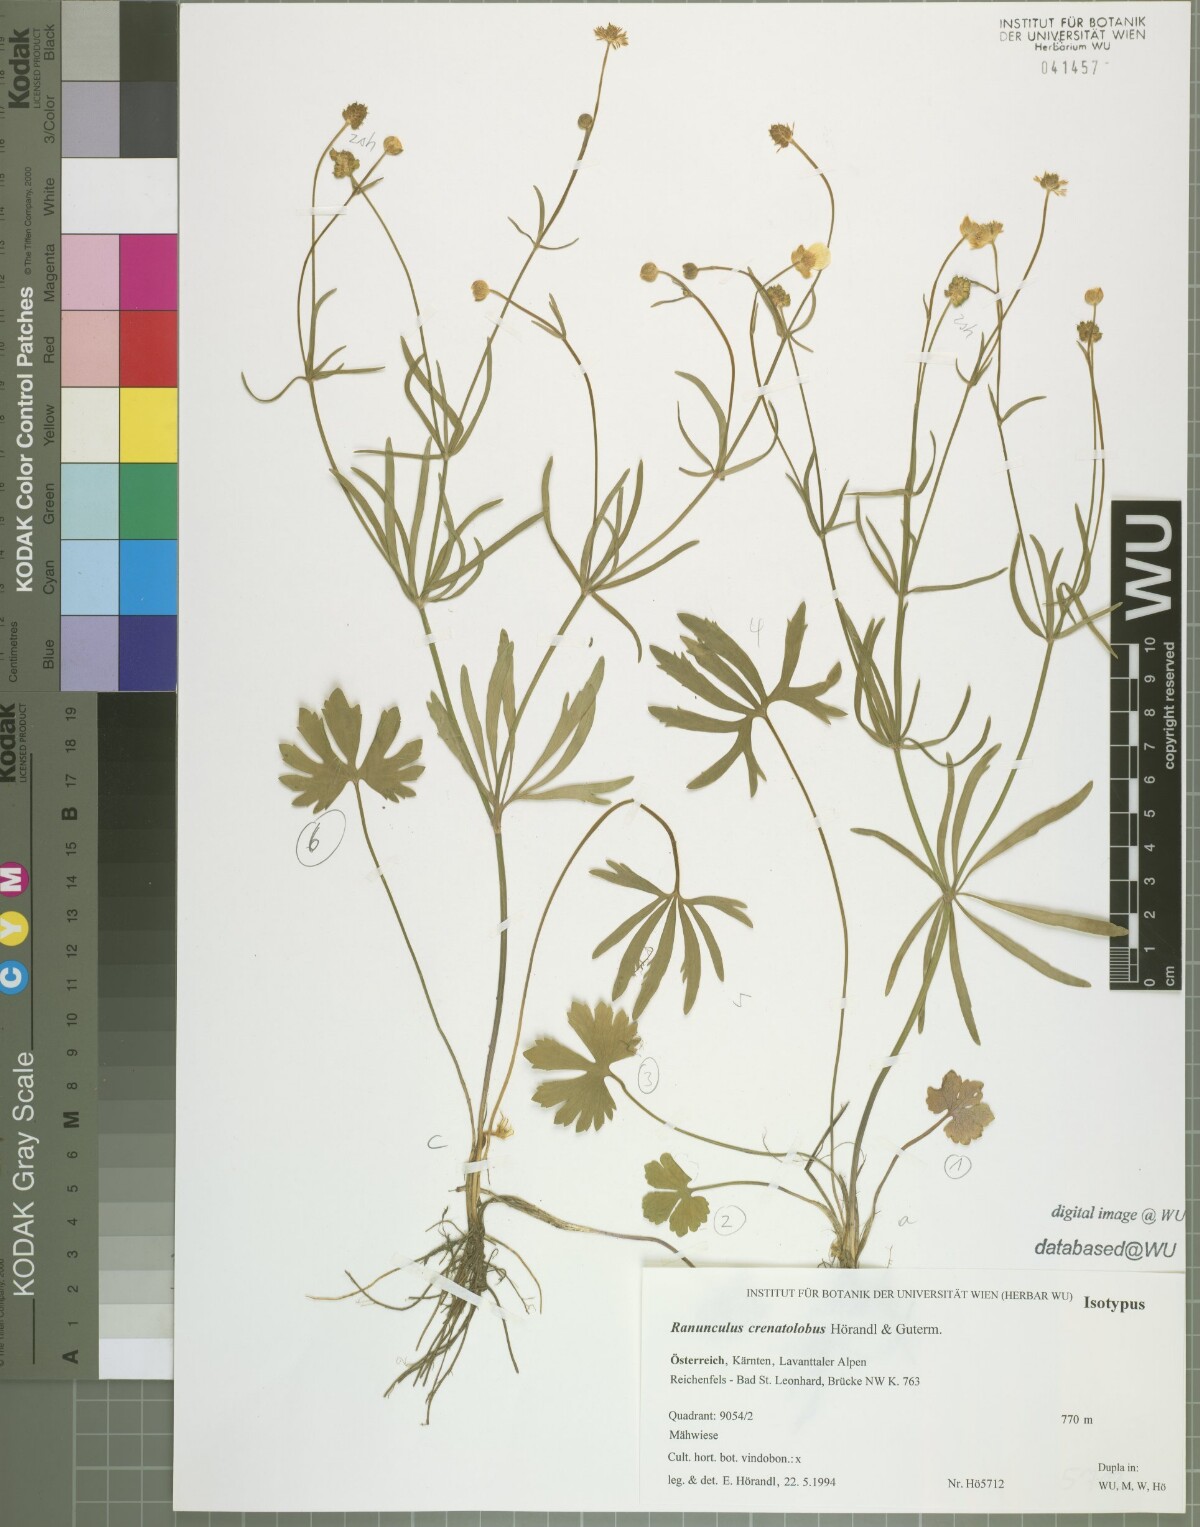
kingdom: Plantae
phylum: Tracheophyta
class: Magnoliopsida
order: Ranunculales
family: Ranunculaceae
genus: Ranunculus
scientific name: Ranunculus crenatolobus
